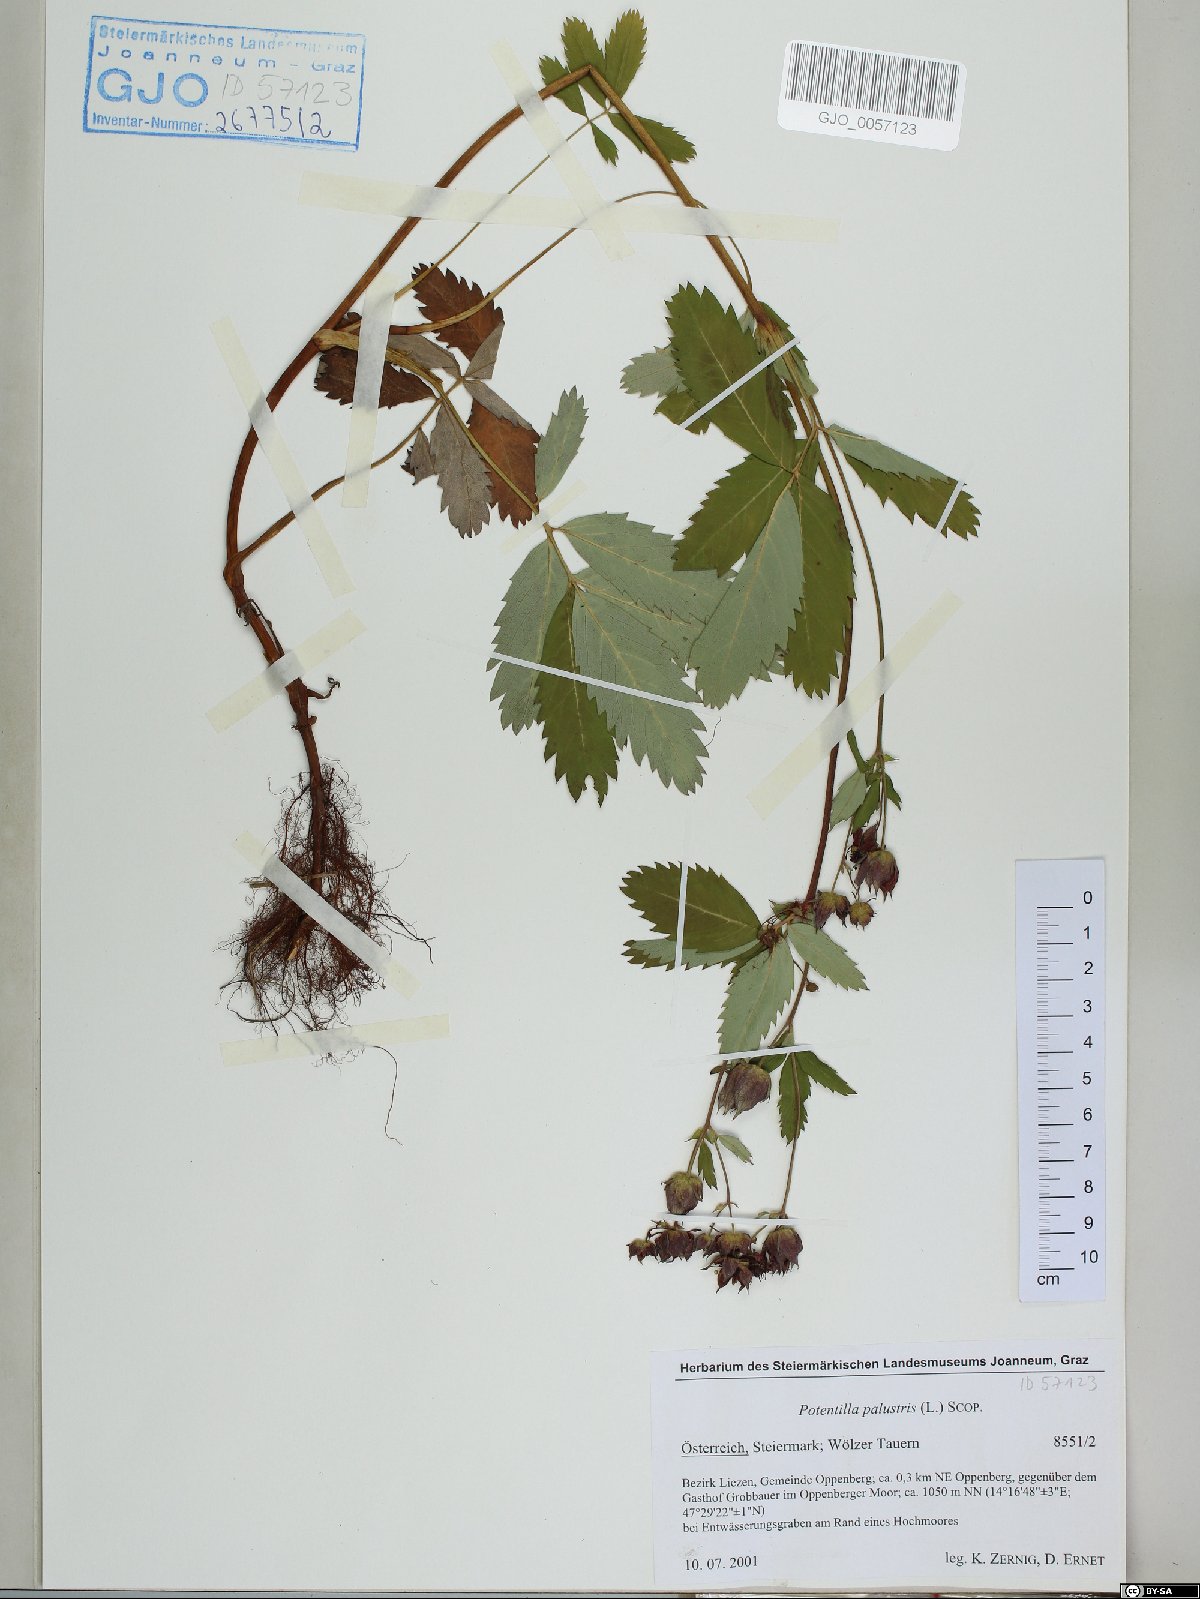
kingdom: Plantae
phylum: Tracheophyta
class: Magnoliopsida
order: Rosales
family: Rosaceae
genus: Comarum
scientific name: Comarum palustre
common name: Marsh cinquefoil
